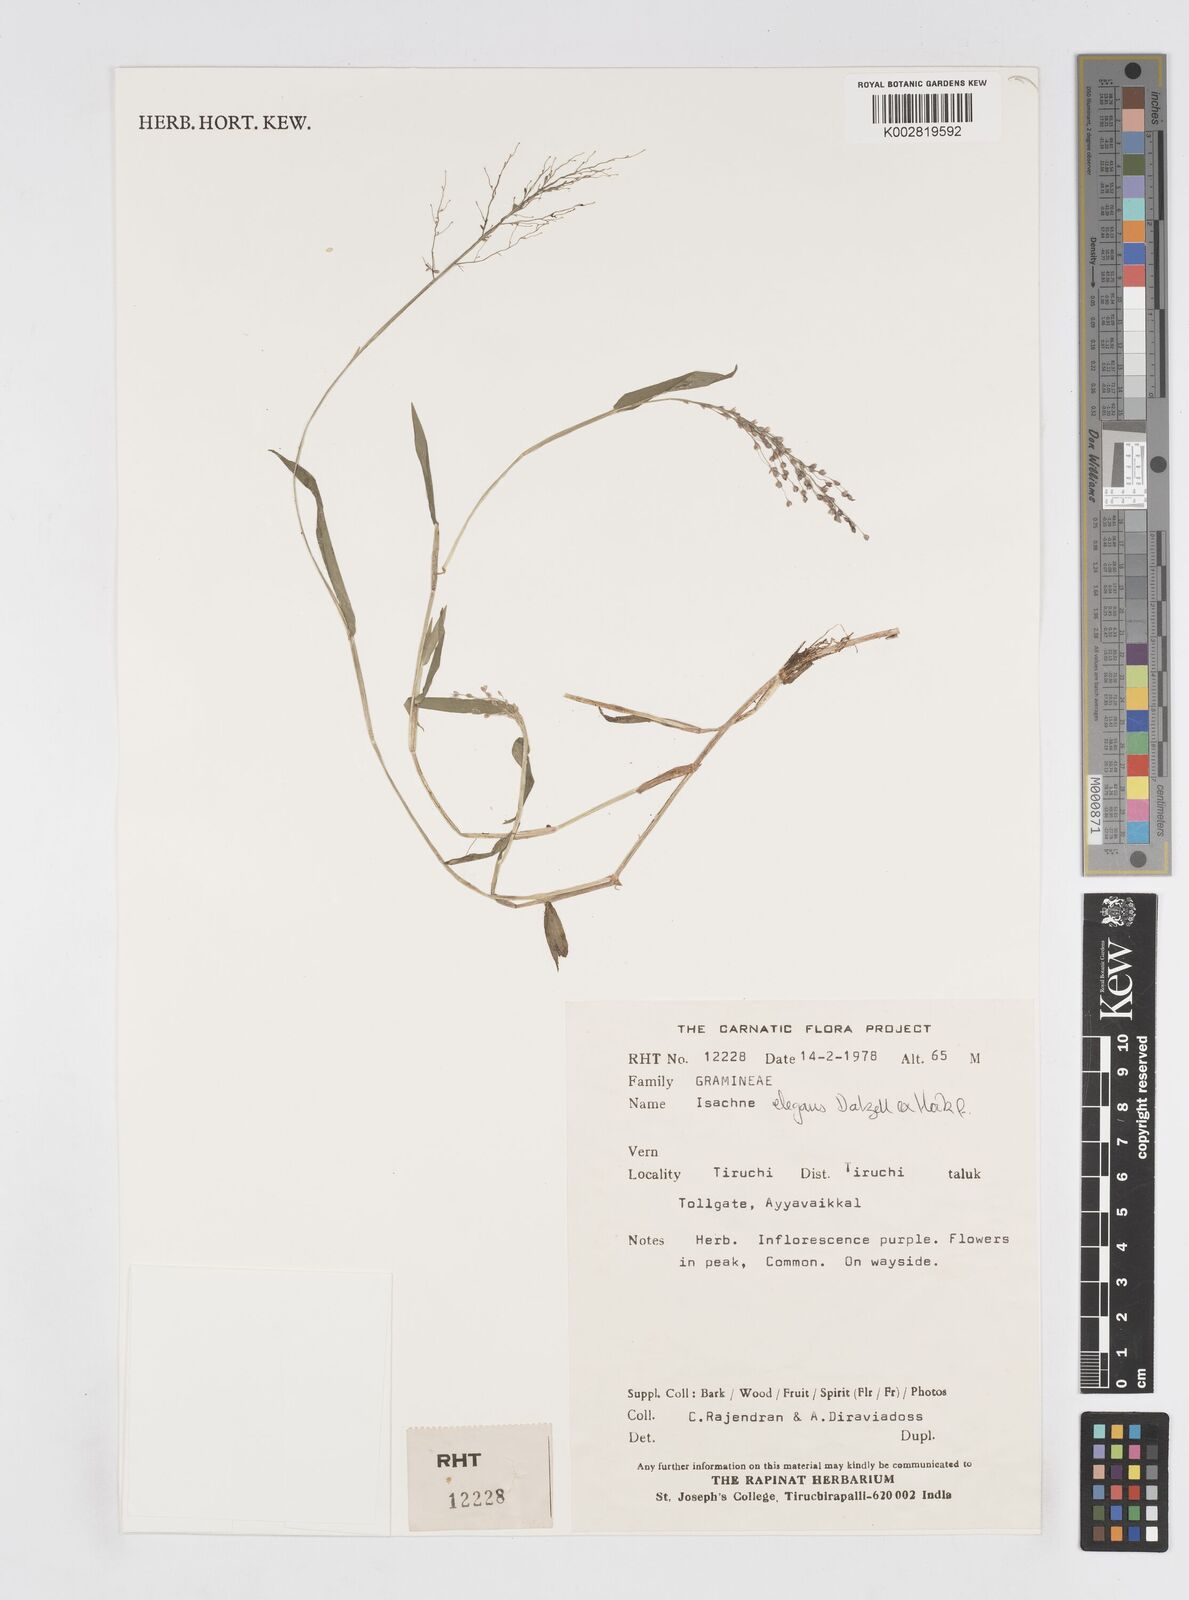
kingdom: Plantae
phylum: Tracheophyta
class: Liliopsida
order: Poales
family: Poaceae
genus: Isachne
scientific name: Isachne elegans
